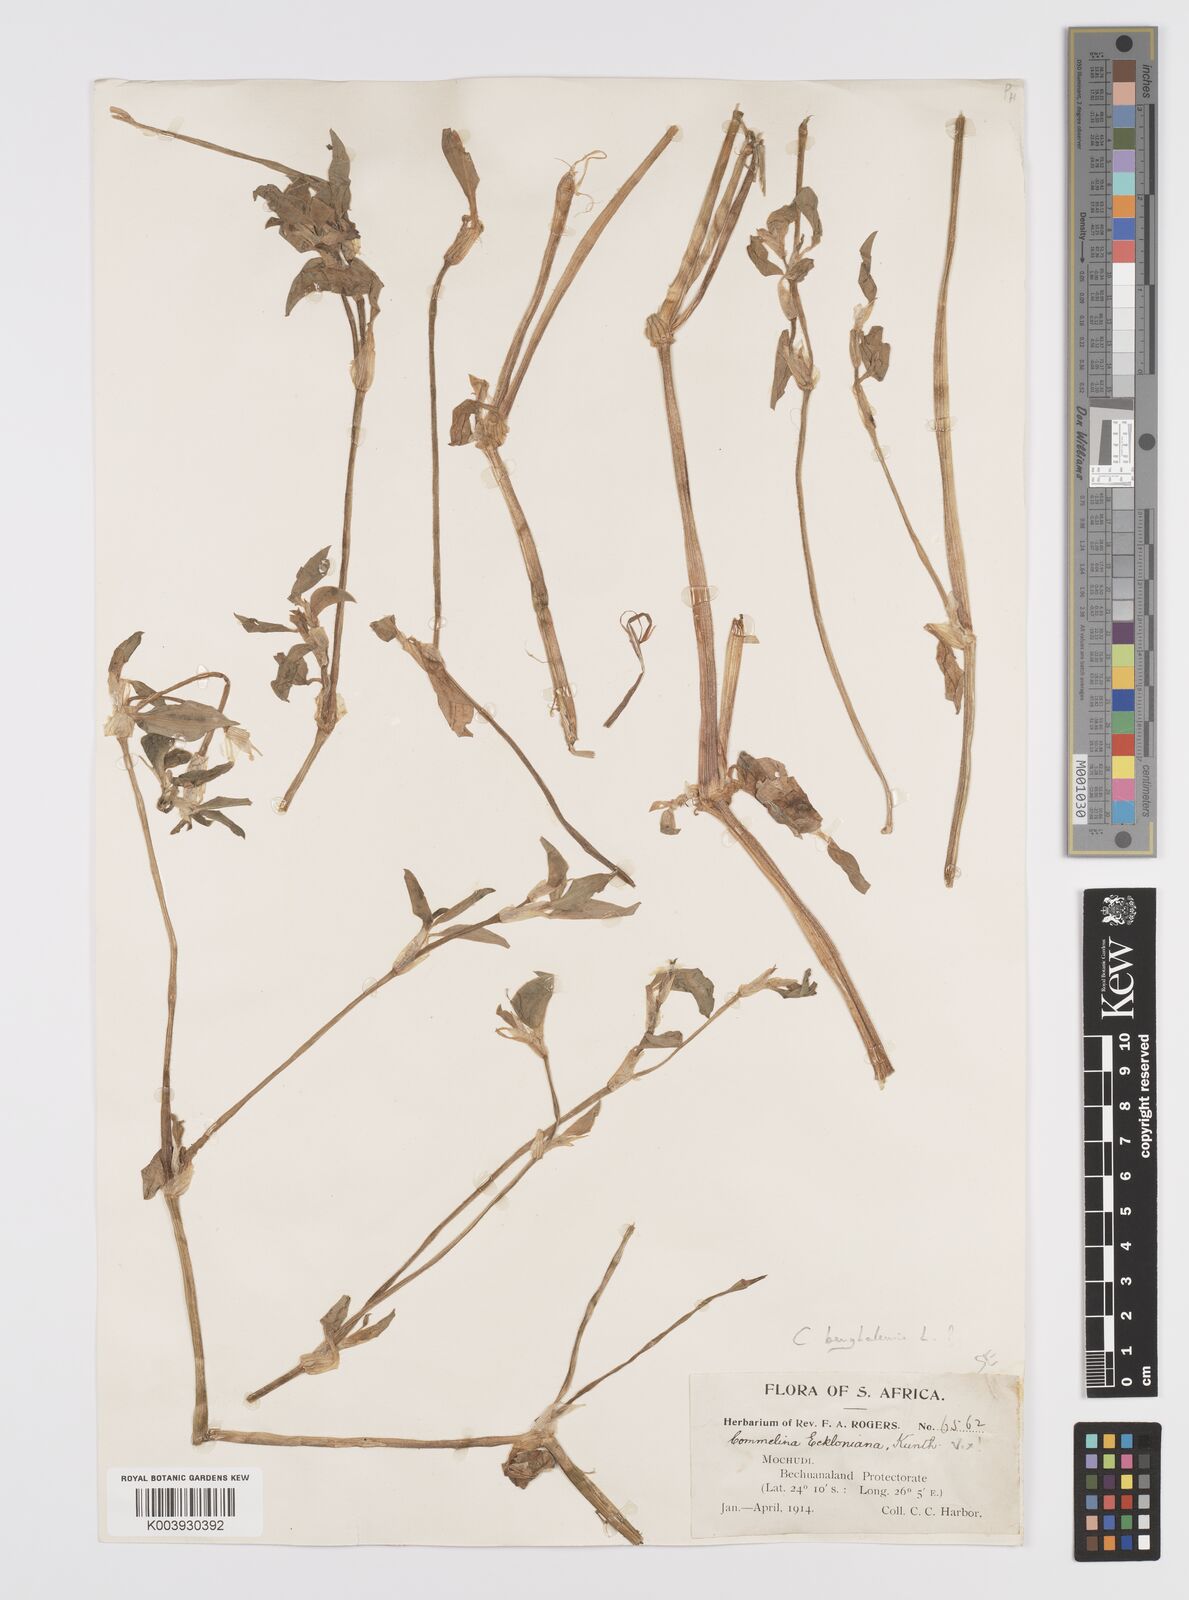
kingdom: Plantae
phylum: Tracheophyta
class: Liliopsida
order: Commelinales
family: Commelinaceae
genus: Commelina
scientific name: Commelina benghalensis
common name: Jio
